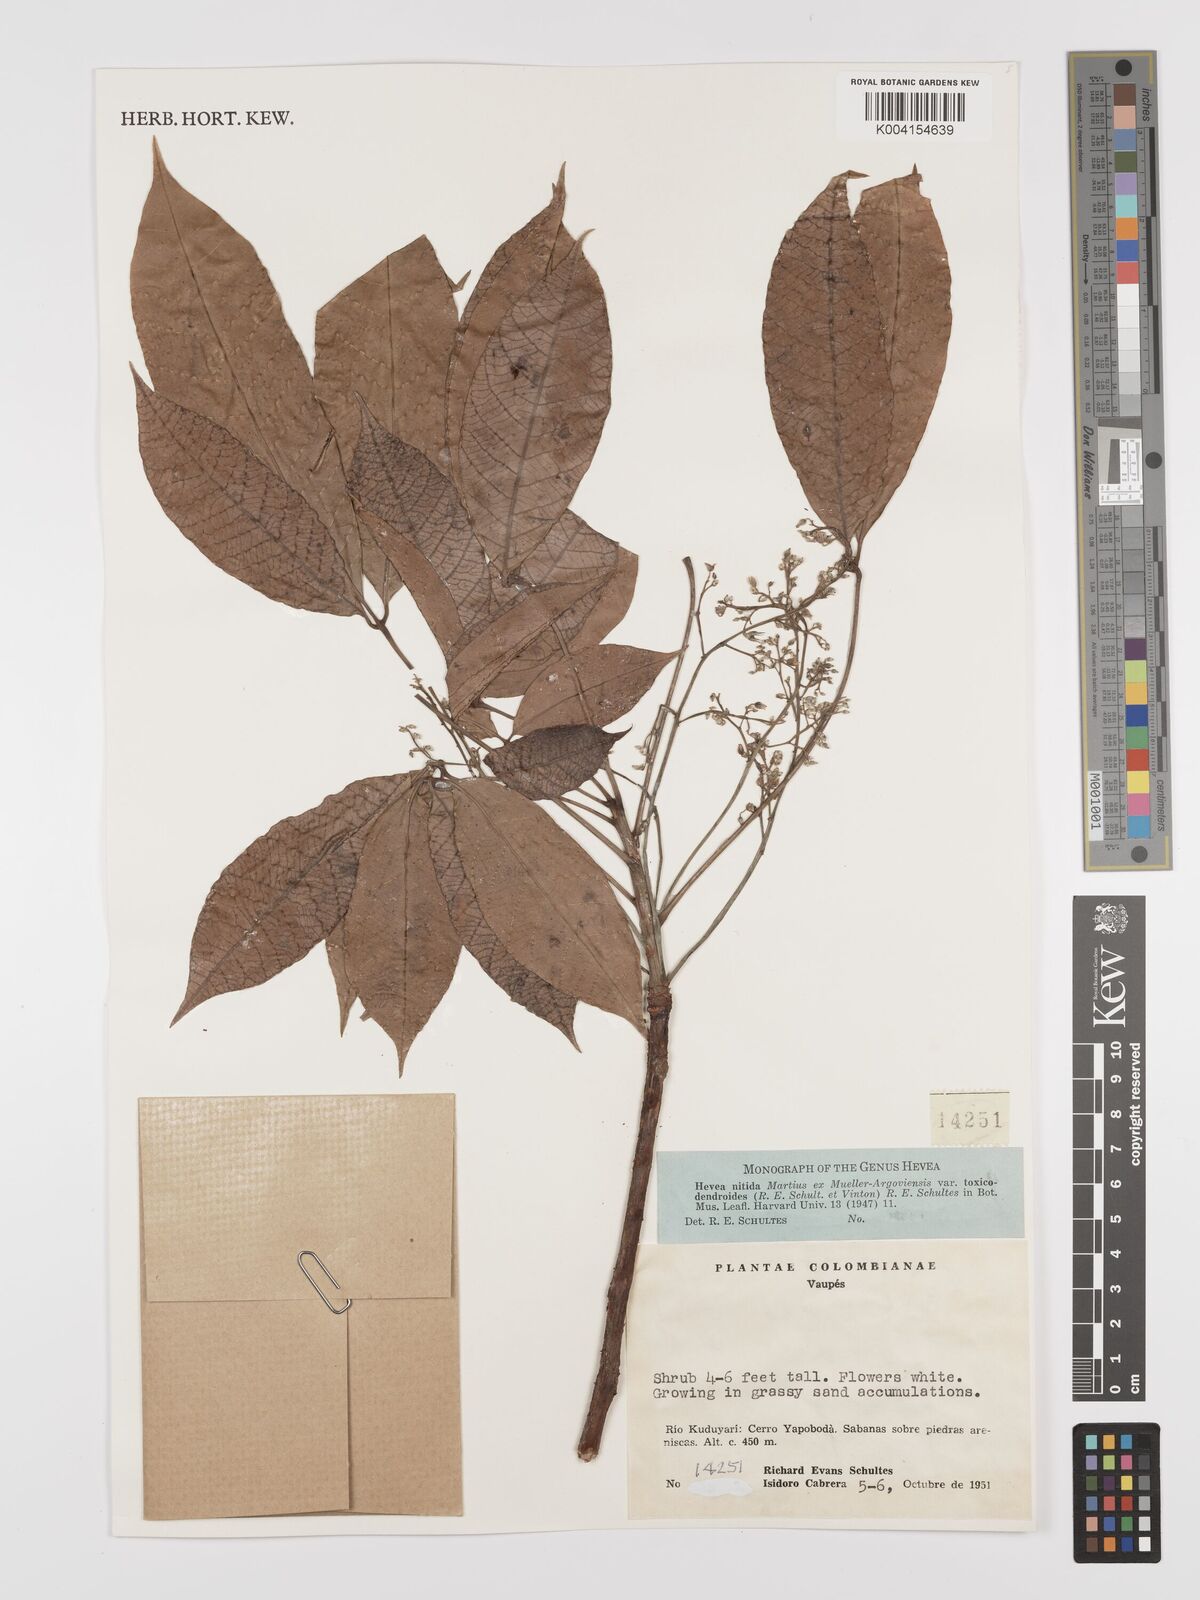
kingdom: Plantae
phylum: Tracheophyta
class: Magnoliopsida
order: Malpighiales
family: Euphorbiaceae
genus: Hevea
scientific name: Hevea nitida
